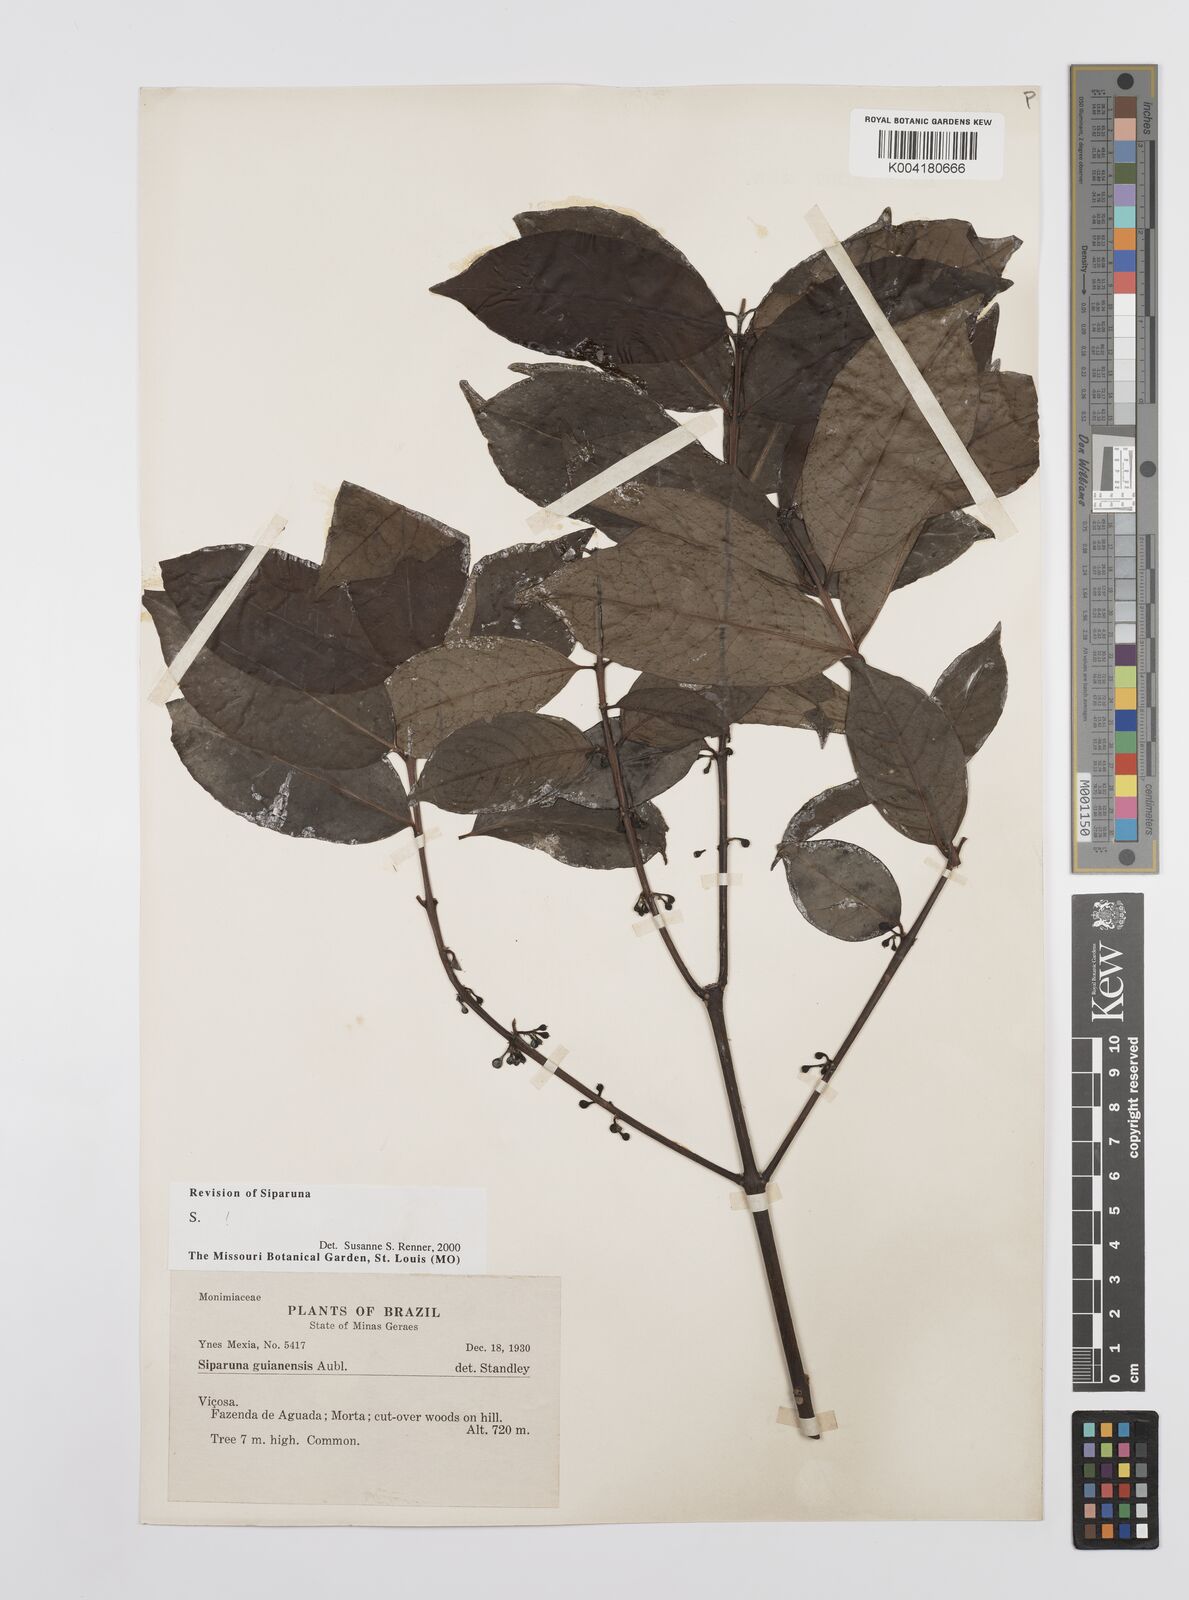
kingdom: Plantae
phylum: Tracheophyta
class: Magnoliopsida
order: Laurales
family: Siparunaceae
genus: Siparuna
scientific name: Siparuna guianensis
